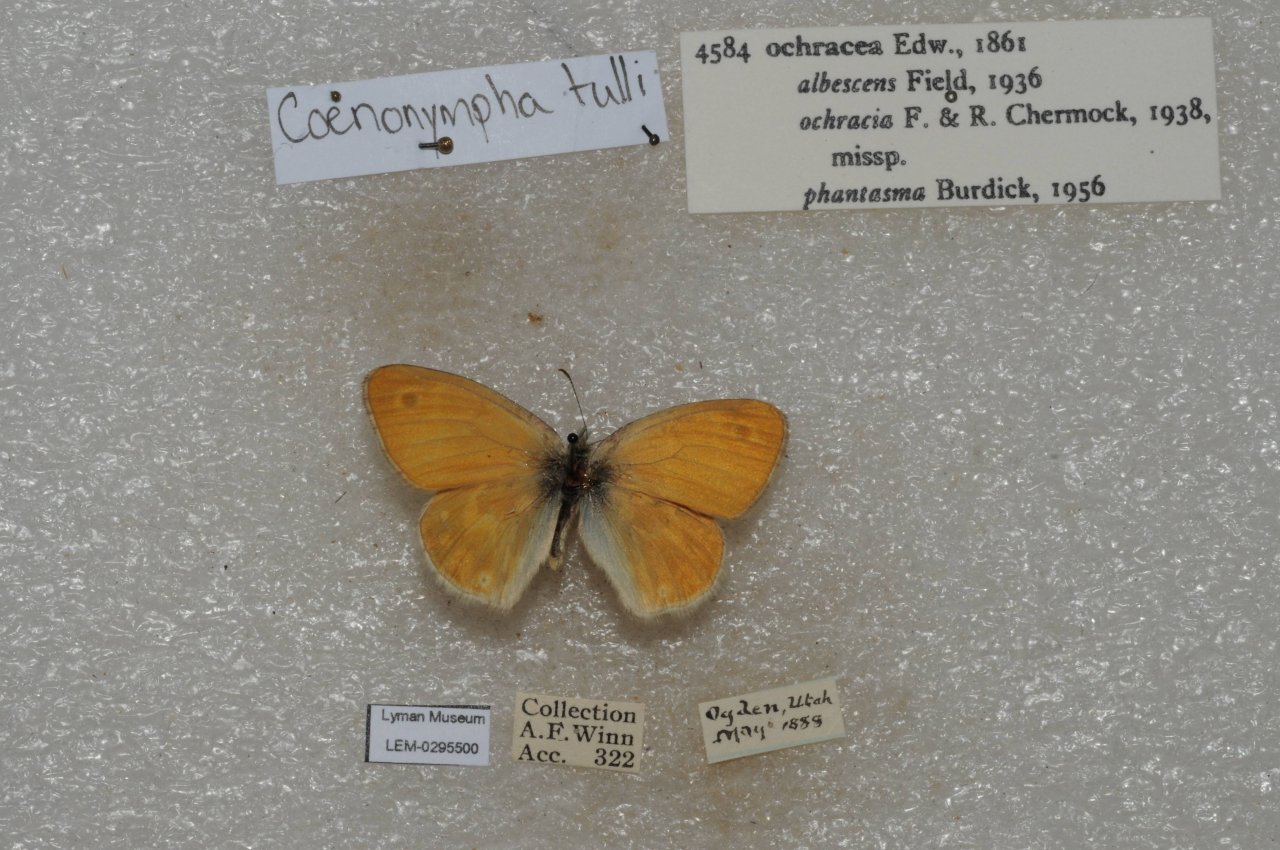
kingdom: Animalia
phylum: Arthropoda
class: Insecta
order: Lepidoptera
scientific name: Lepidoptera
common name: Butterflies
